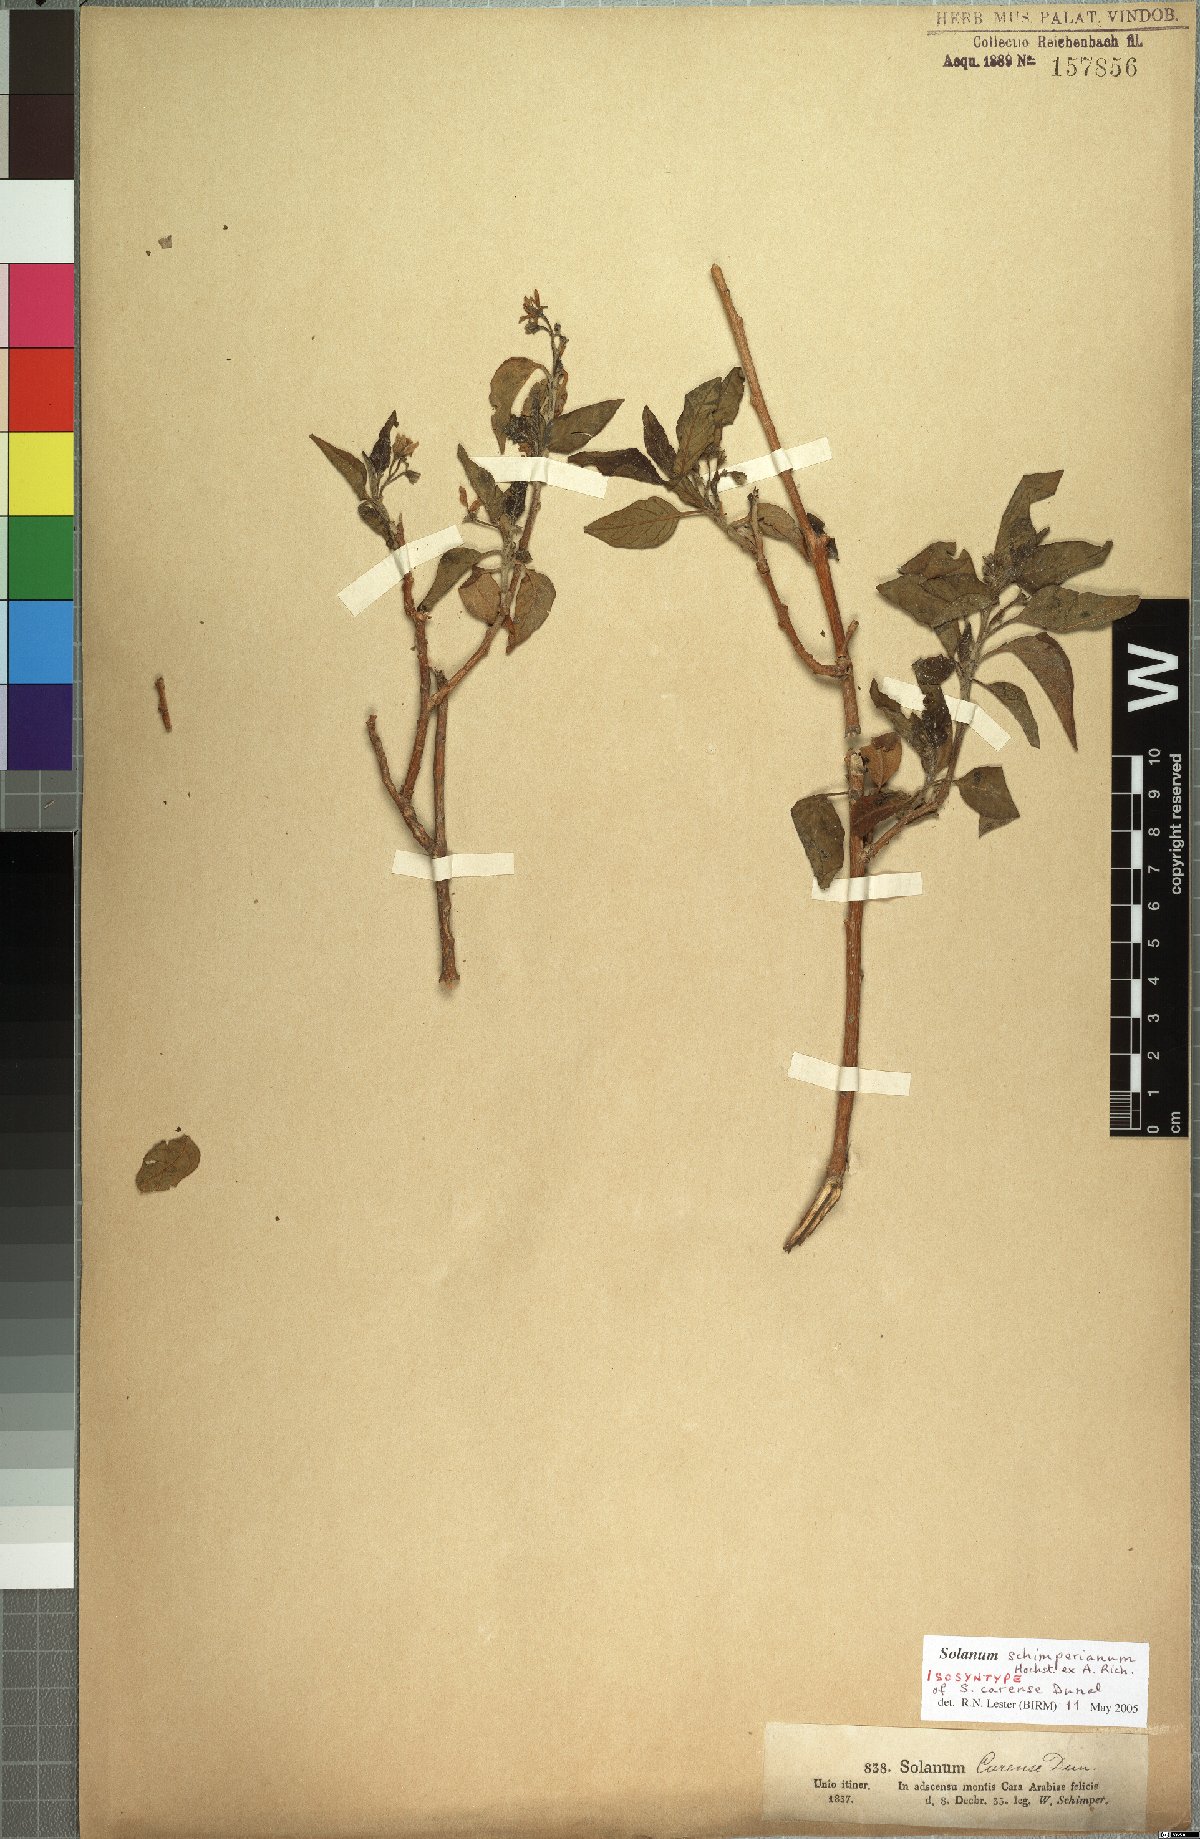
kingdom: Plantae
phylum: Tracheophyta
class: Magnoliopsida
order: Solanales
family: Solanaceae
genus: Solanum
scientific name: Solanum schimperianum
